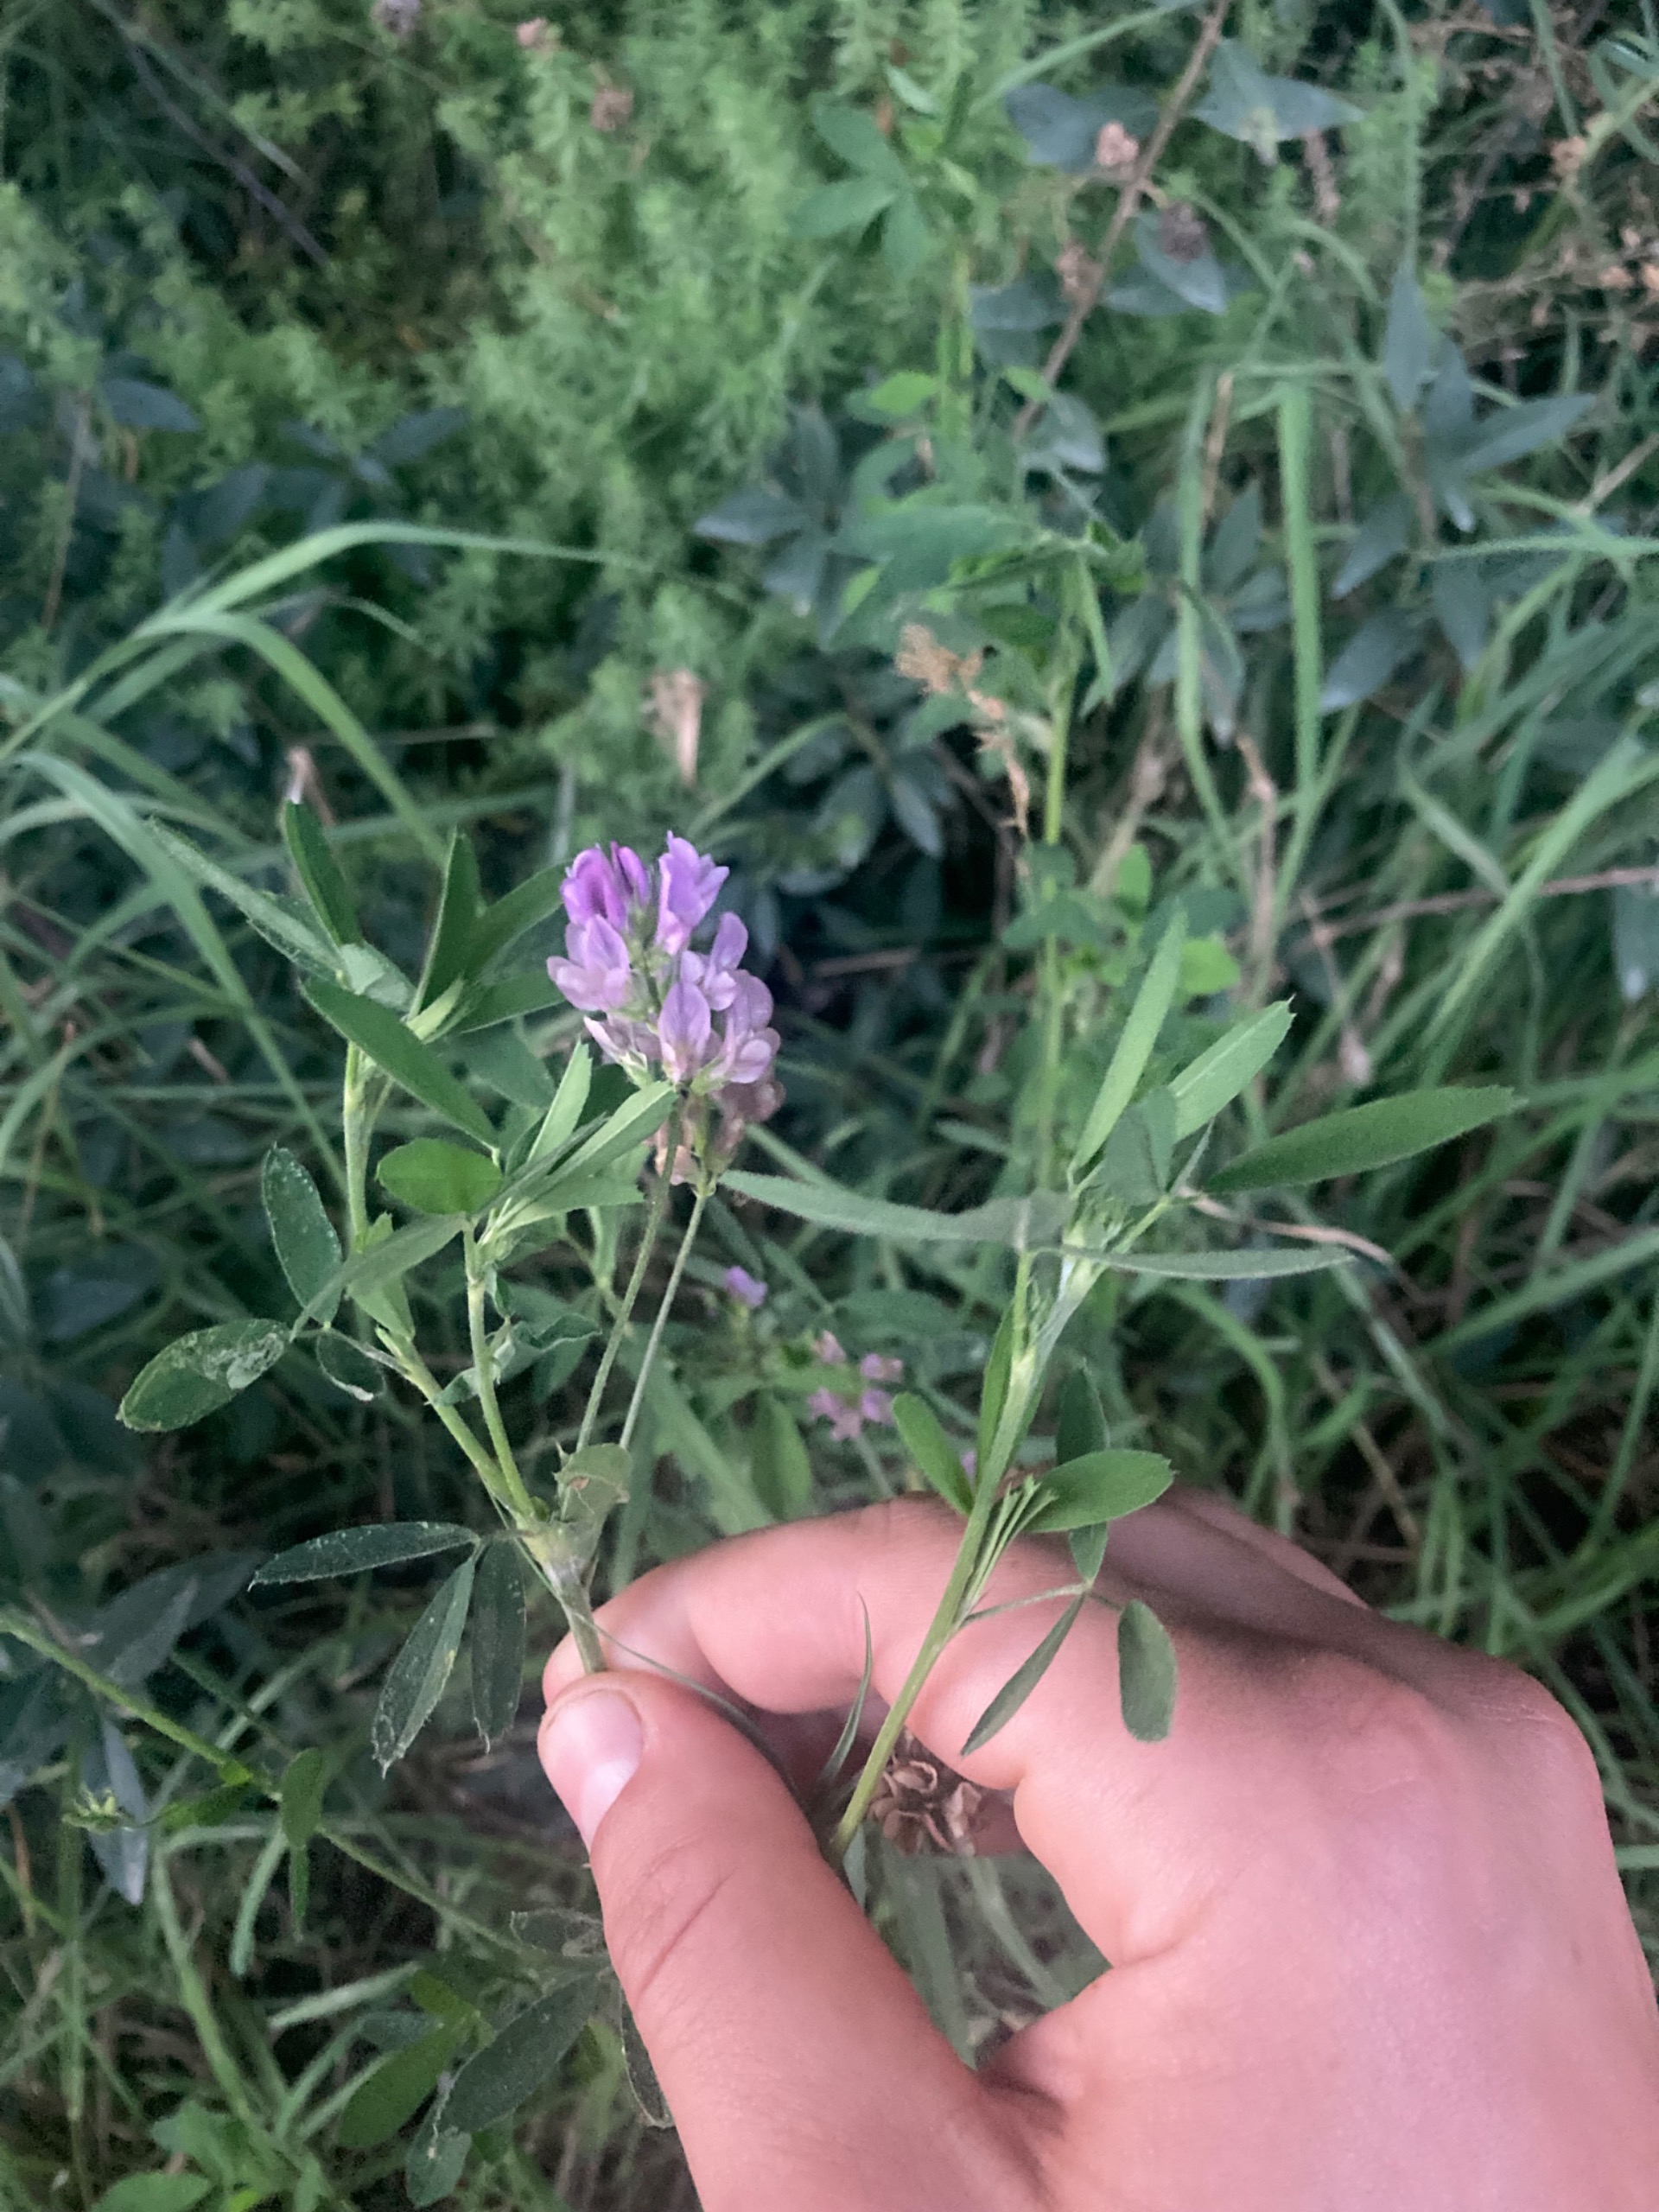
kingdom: Plantae
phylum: Tracheophyta
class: Magnoliopsida
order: Fabales
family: Fabaceae
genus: Medicago
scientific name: Medicago sativa
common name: Lucerne
